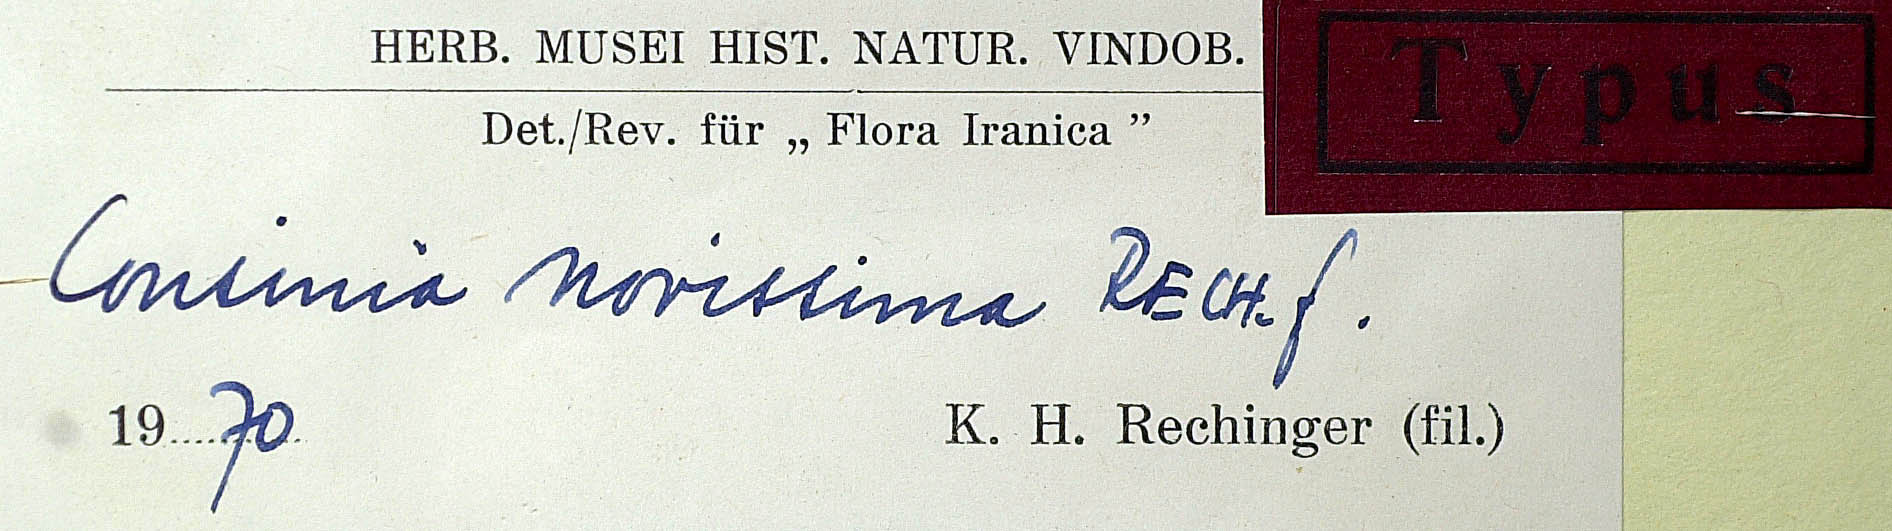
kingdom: Plantae
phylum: Tracheophyta
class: Magnoliopsida
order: Asterales
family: Asteraceae
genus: Cousinia
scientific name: Cousinia novissima
